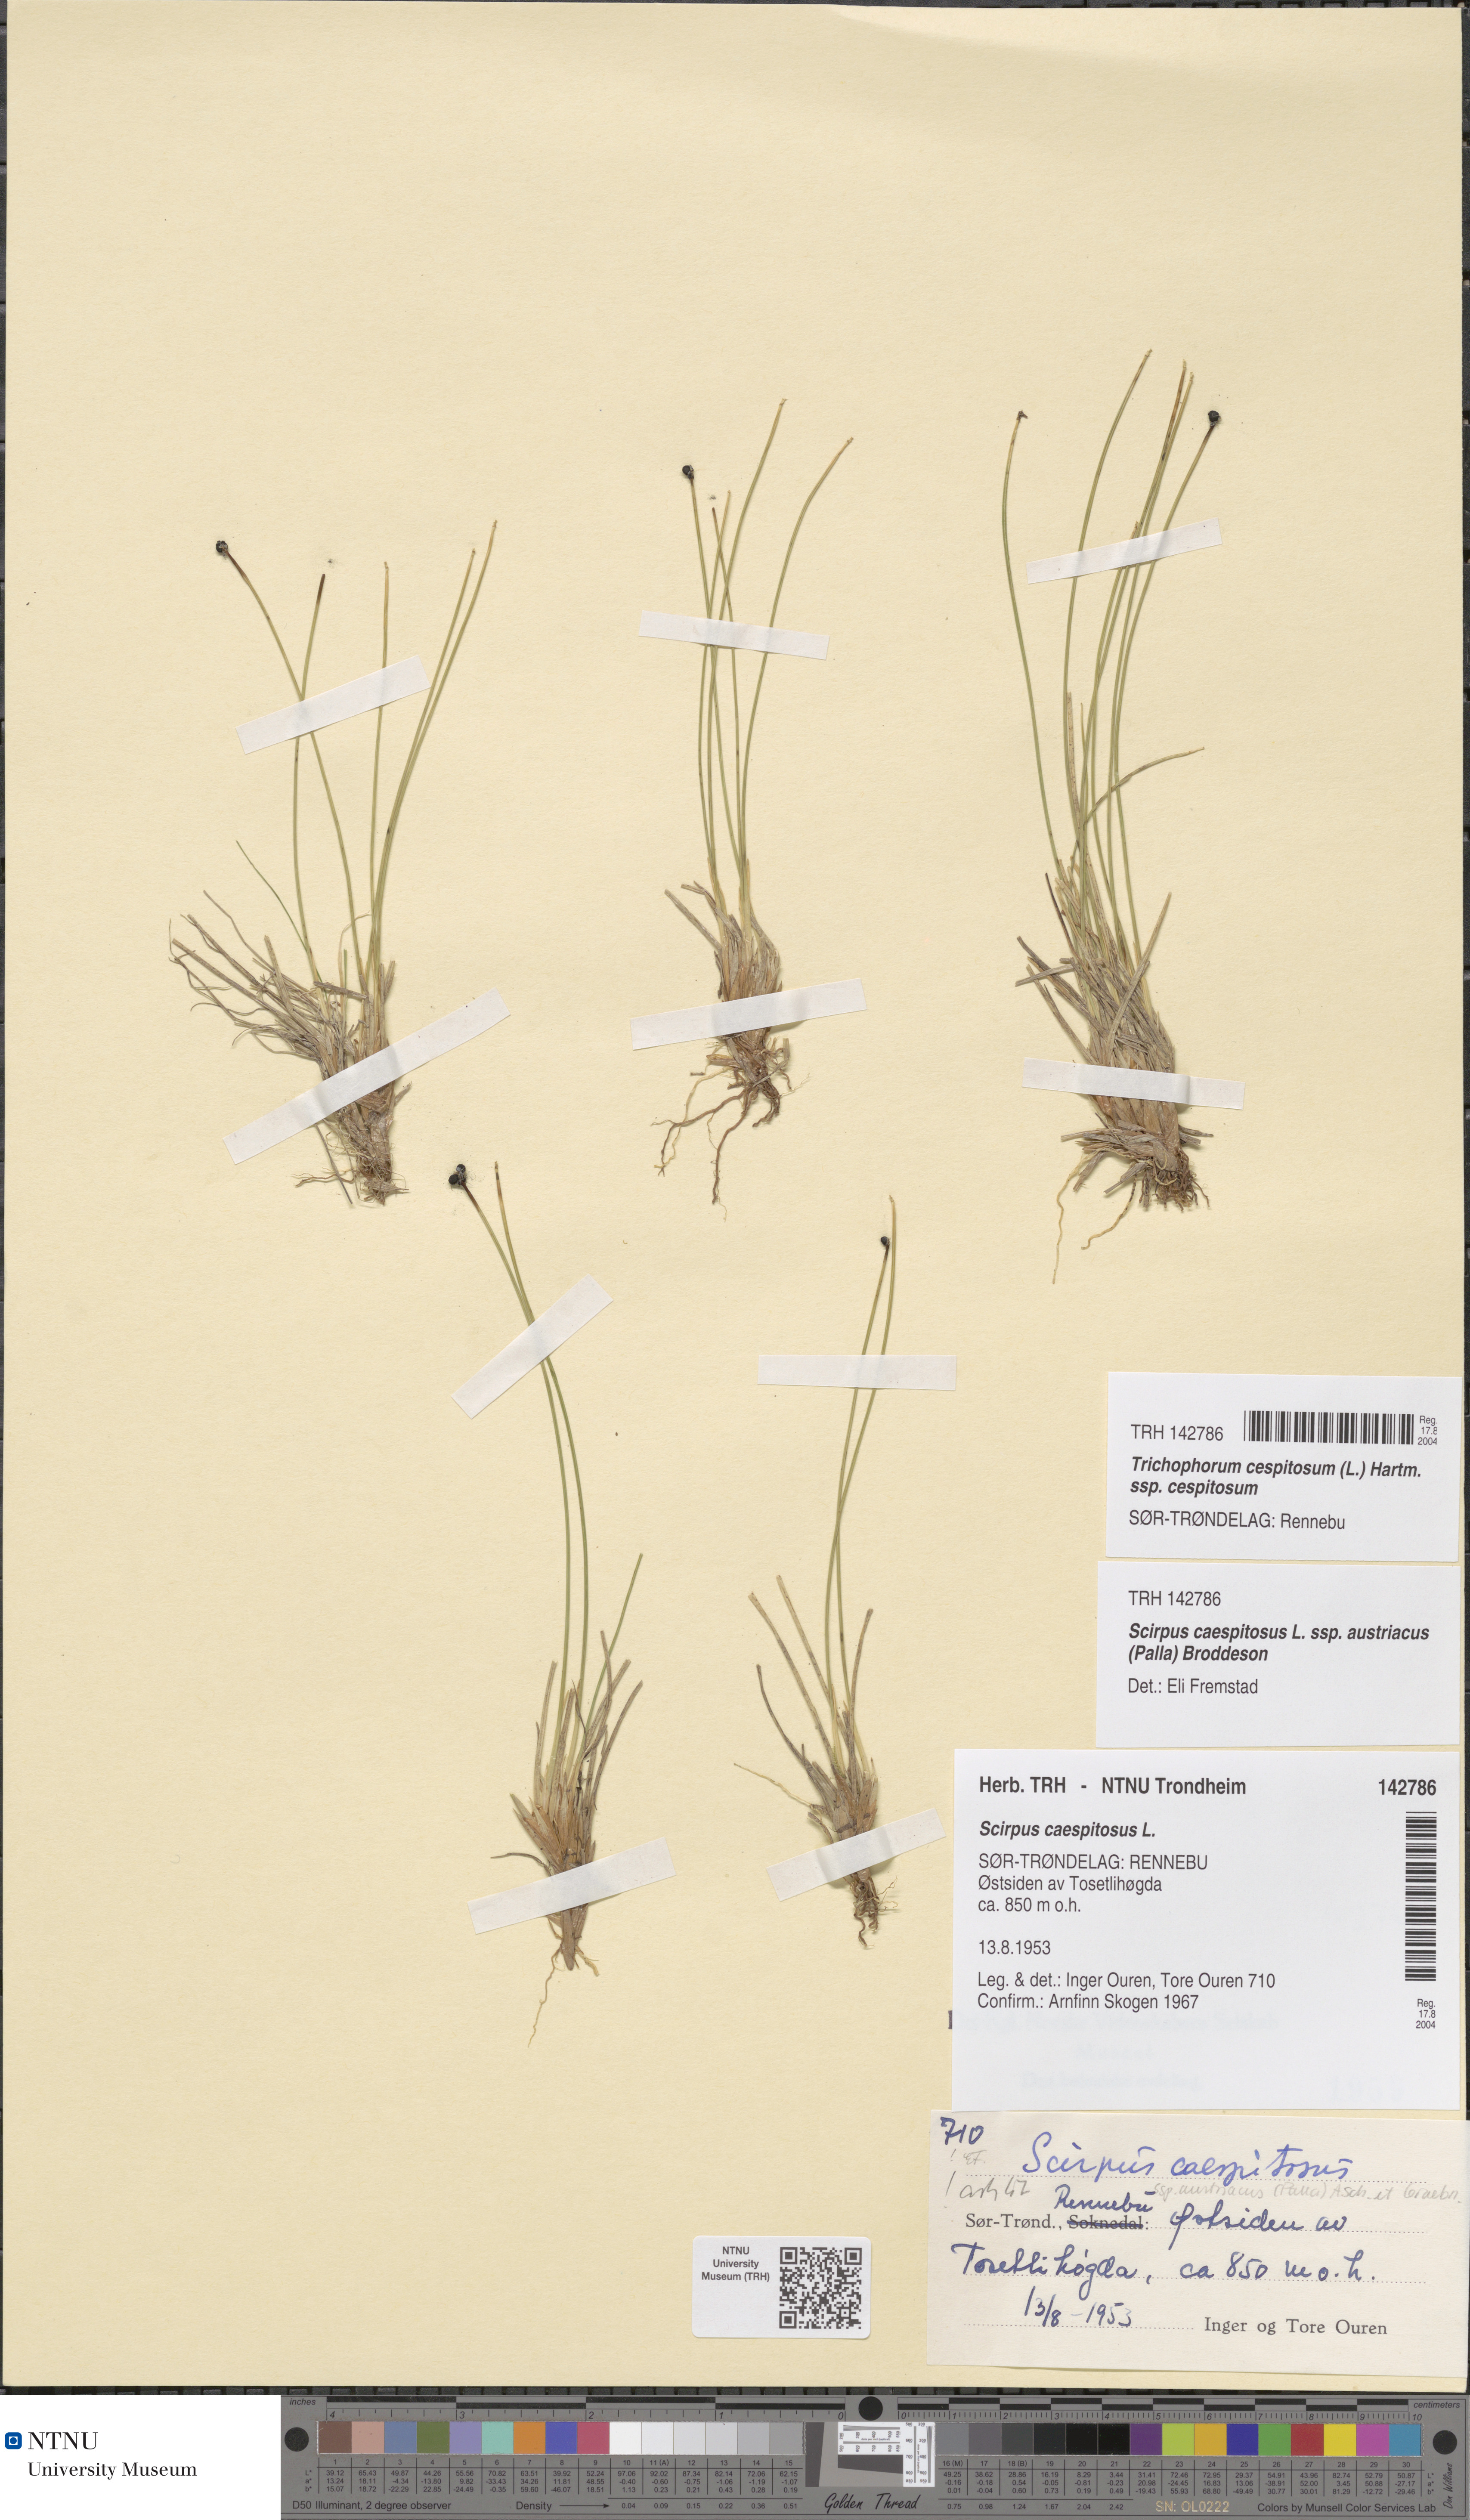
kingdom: Plantae
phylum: Tracheophyta
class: Liliopsida
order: Poales
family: Cyperaceae
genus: Trichophorum
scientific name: Trichophorum cespitosum
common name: Cespitose bulrush
